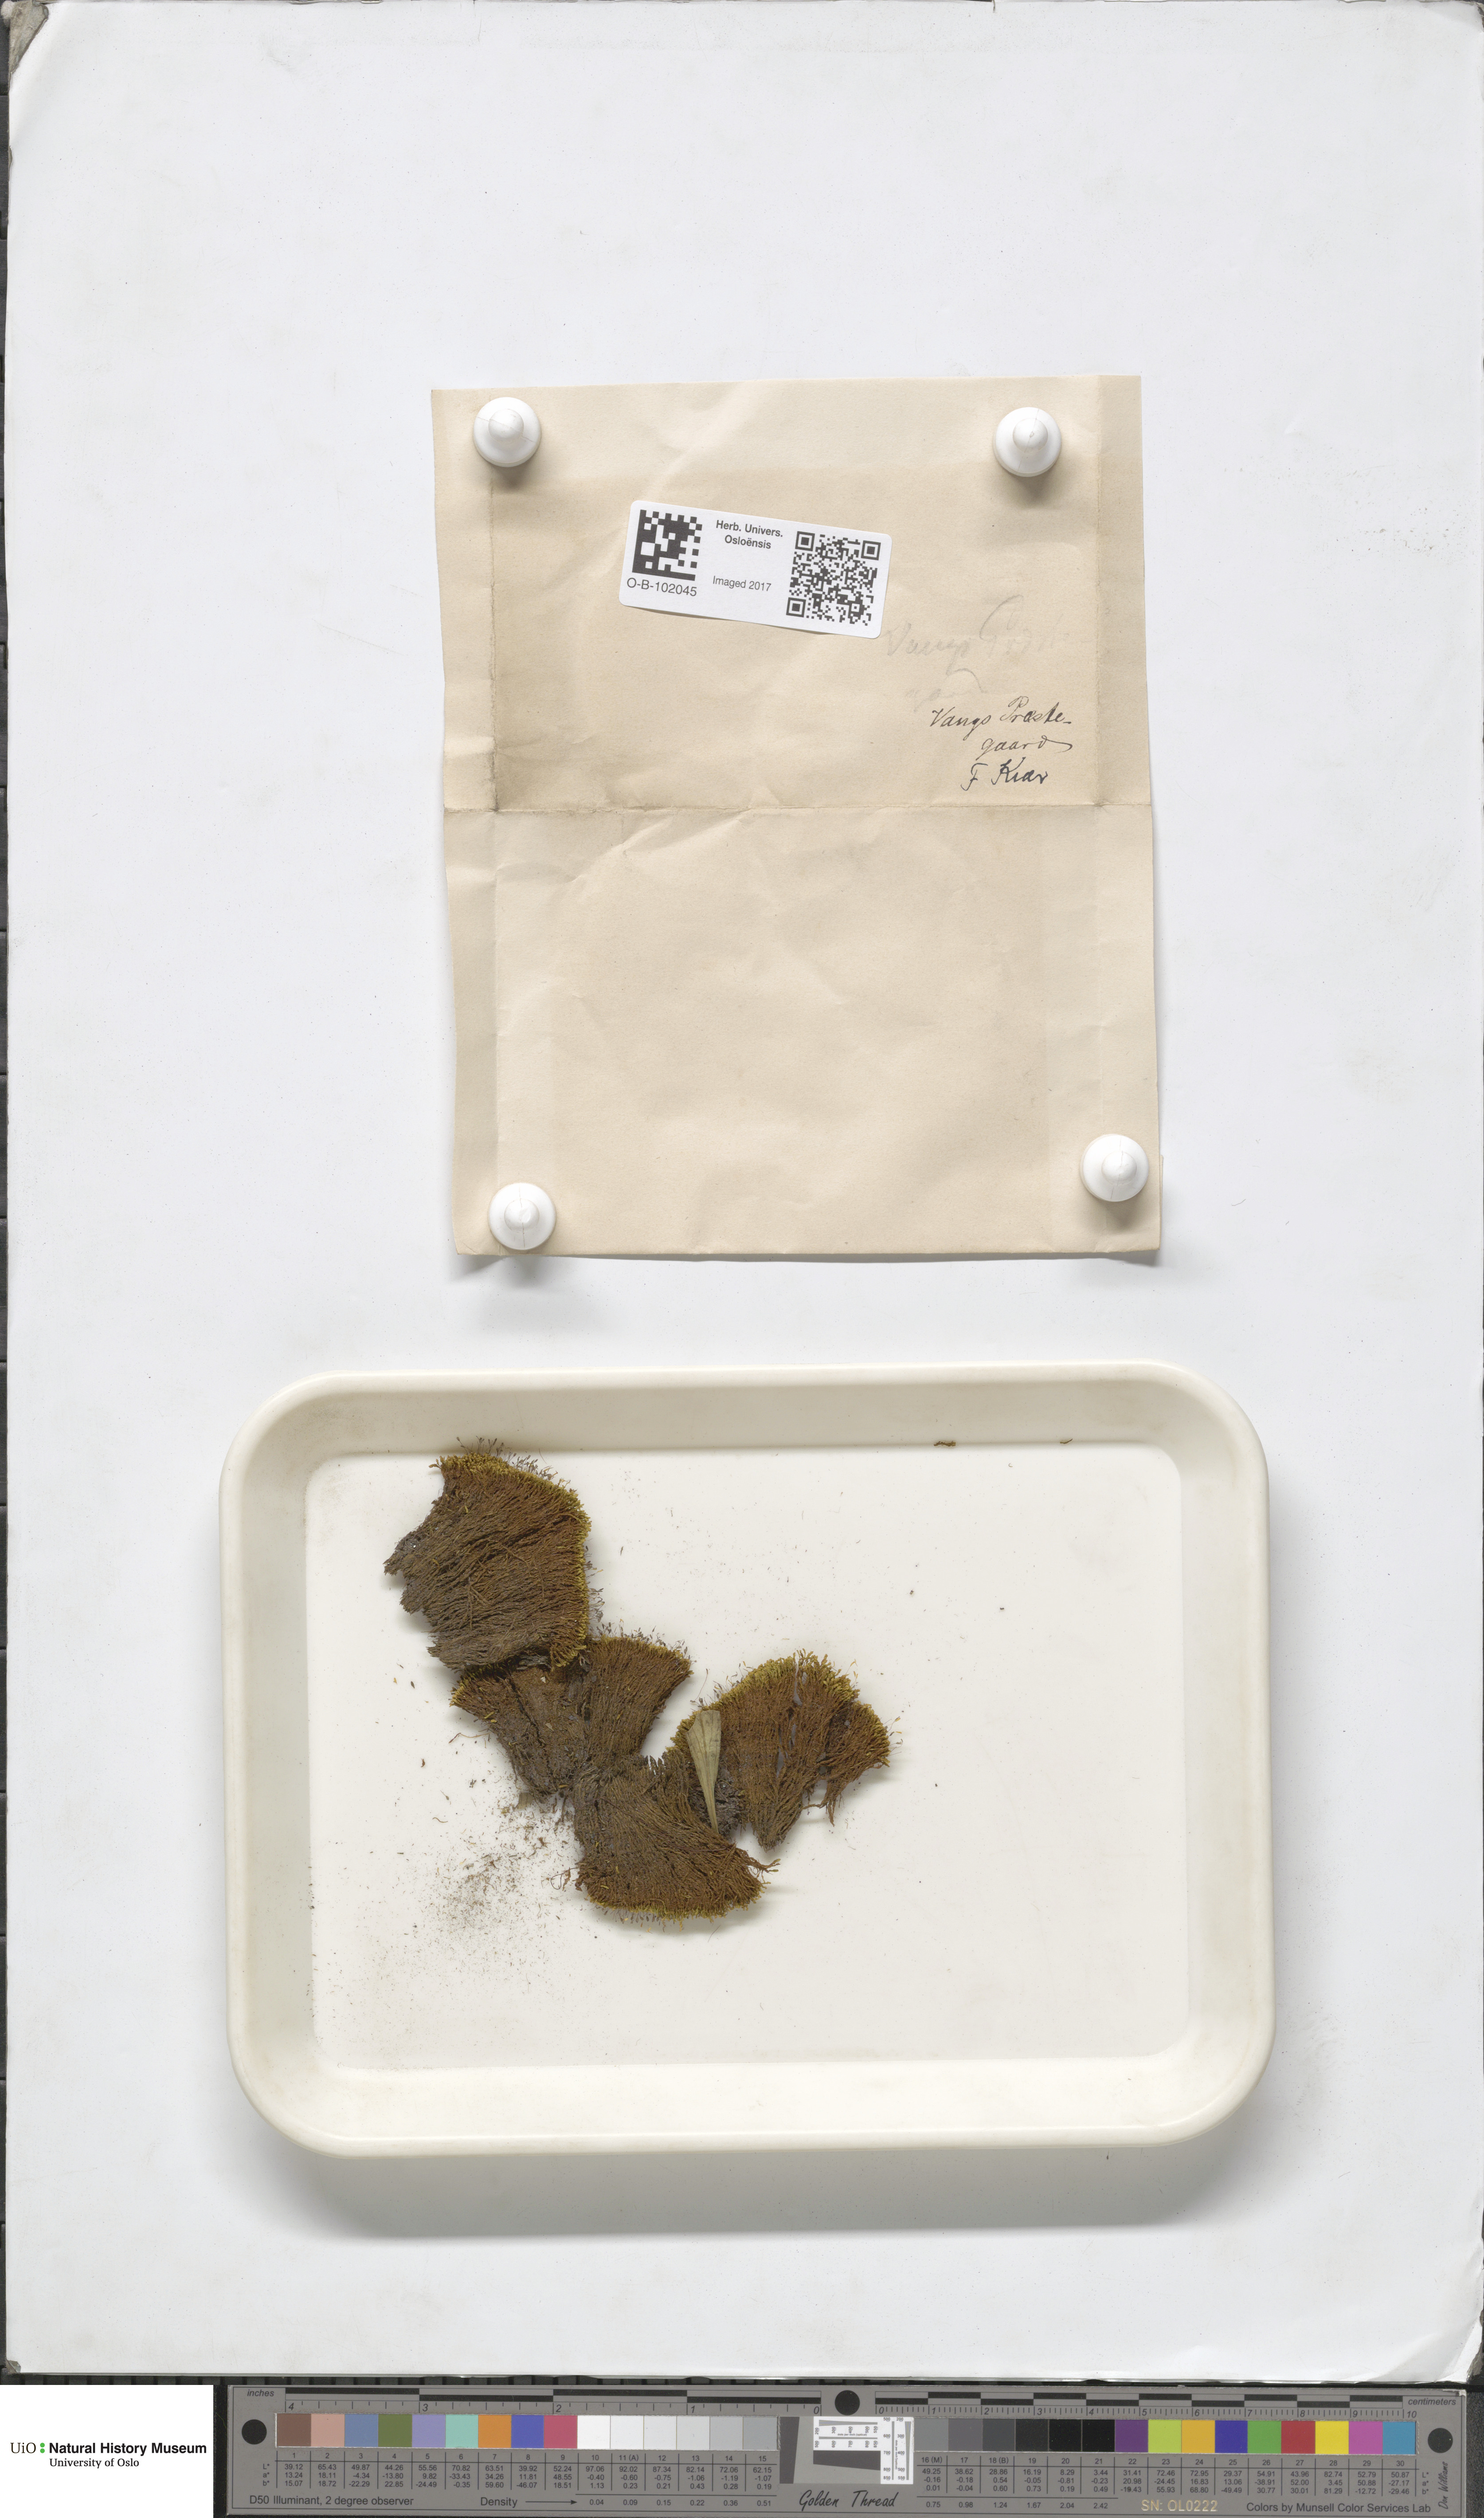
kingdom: Plantae
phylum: Bryophyta
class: Bryopsida
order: Pottiales
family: Pottiaceae
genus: Anoectangium
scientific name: Anoectangium aestivum
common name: Summer-moss
